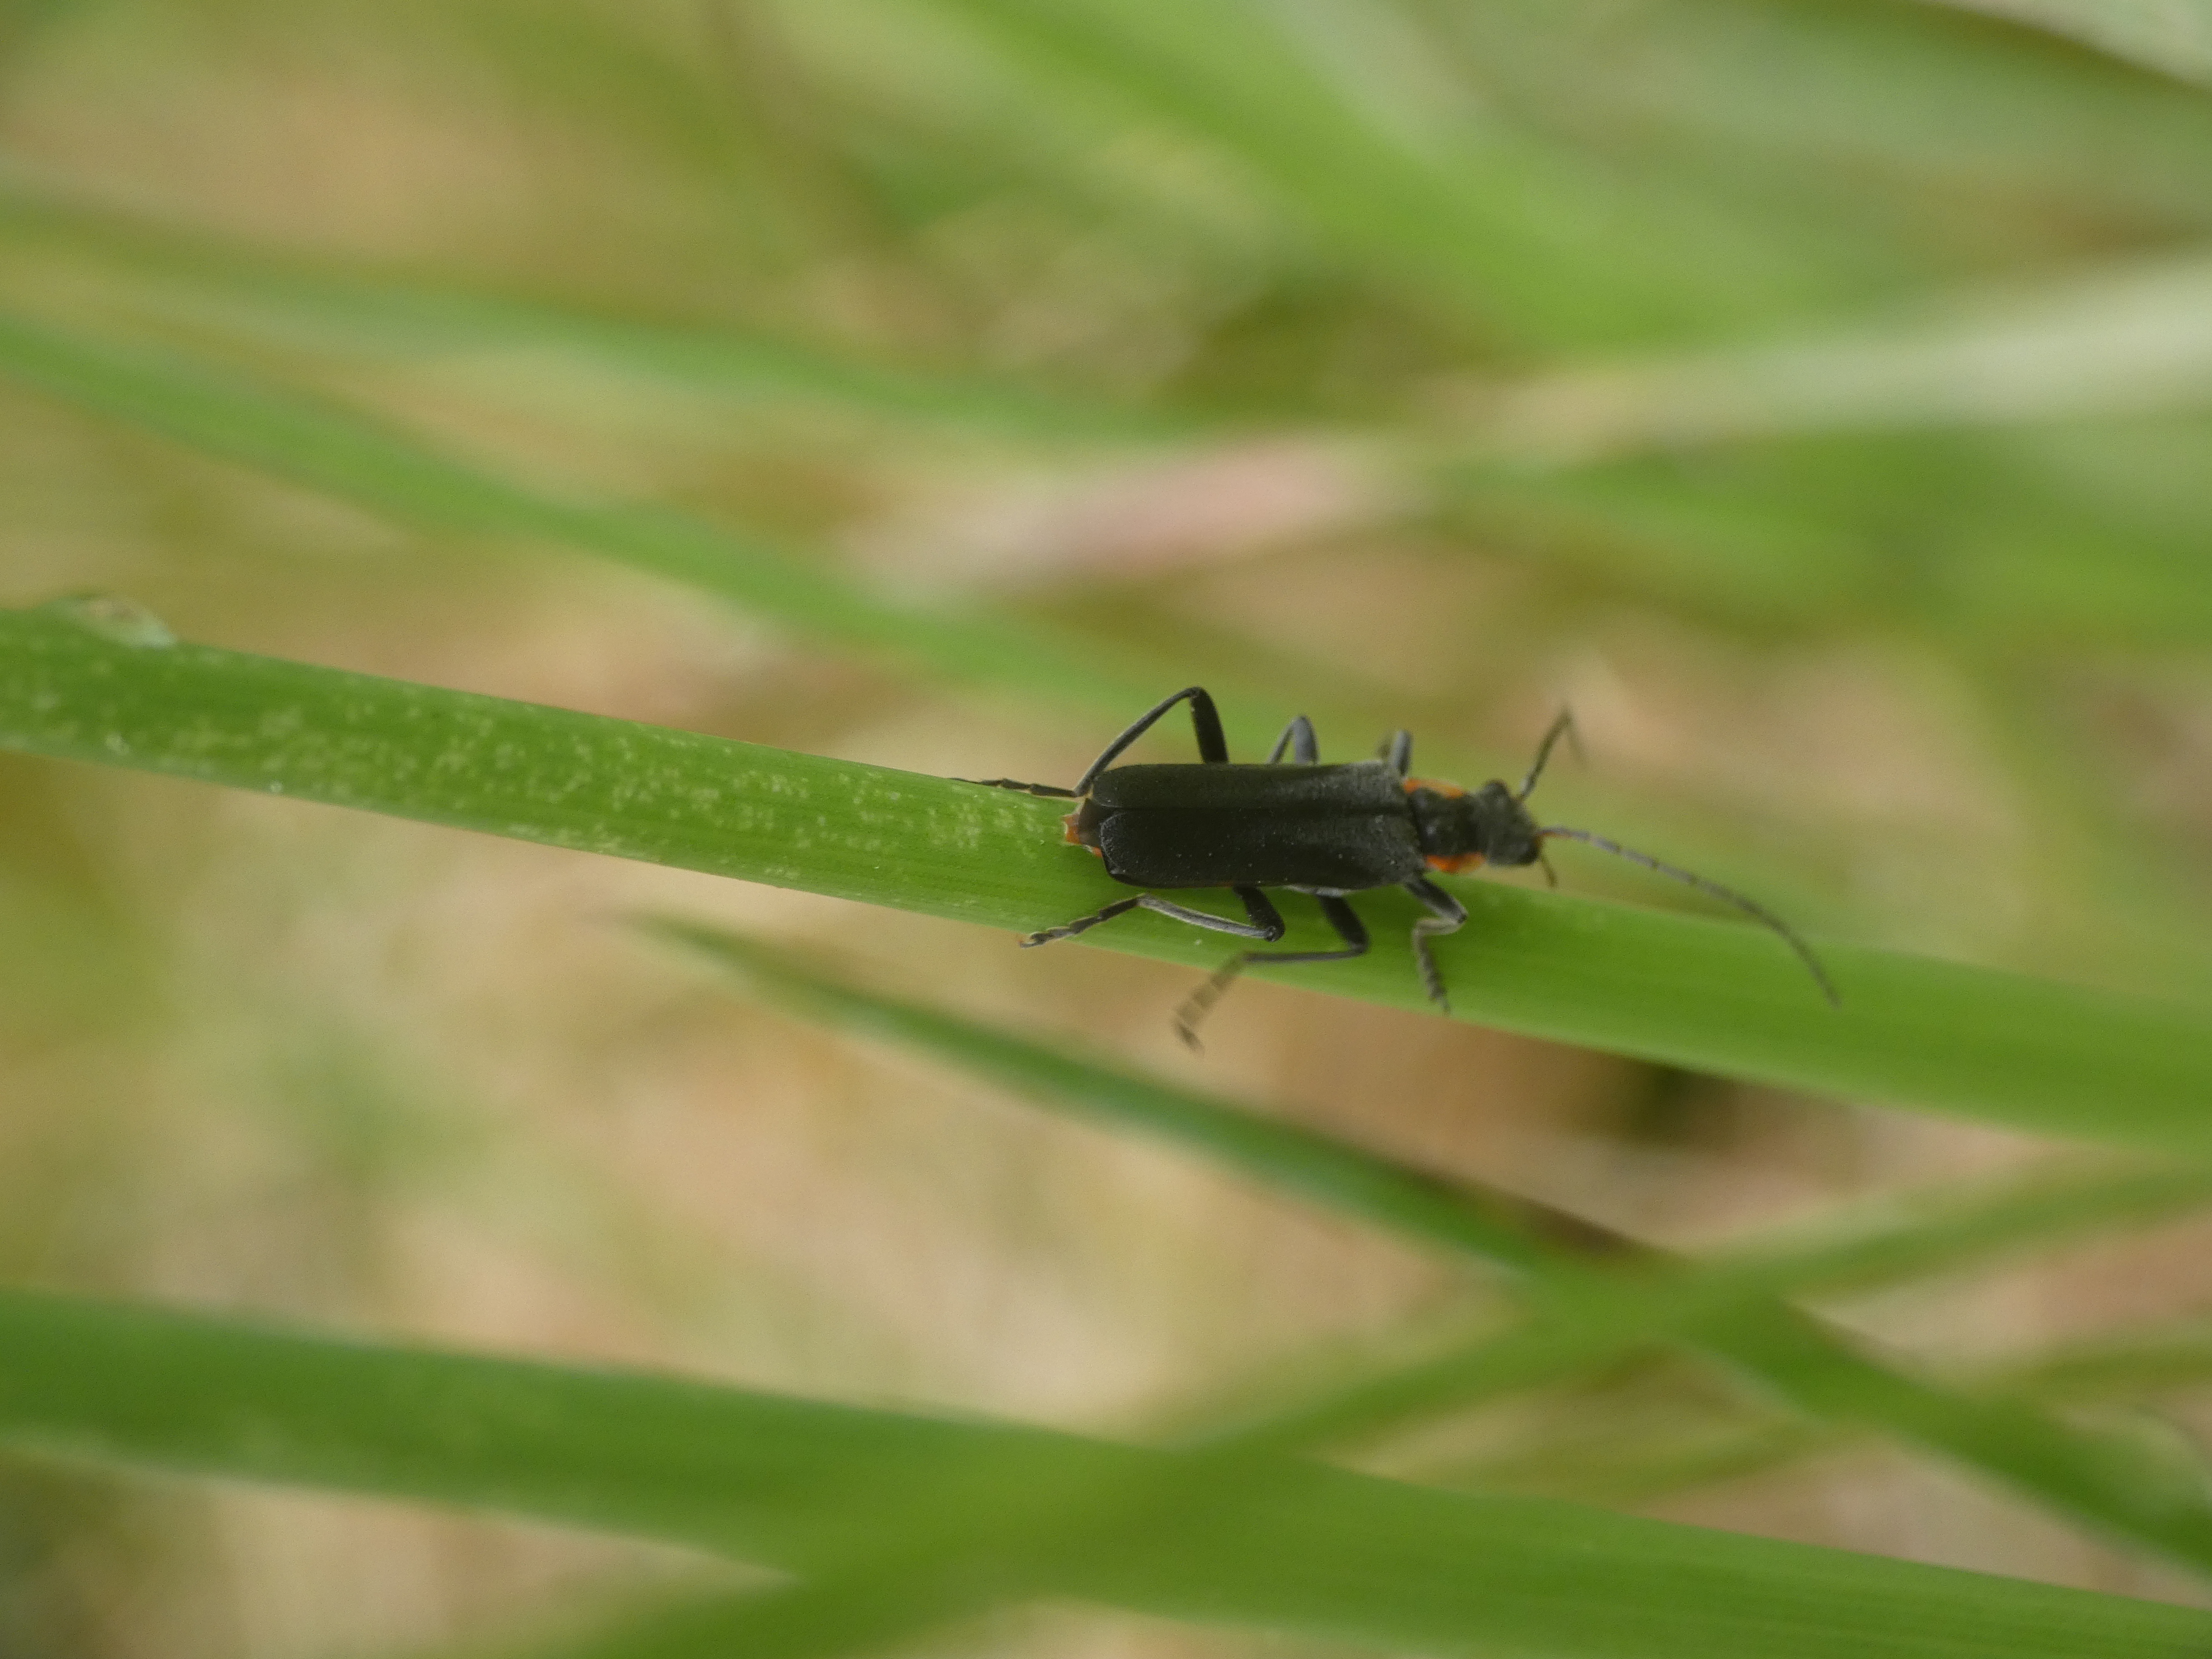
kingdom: Animalia
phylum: Arthropoda
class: Insecta
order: Coleoptera
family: Cantharidae
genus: Cantharis
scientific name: Cantharis obscura
